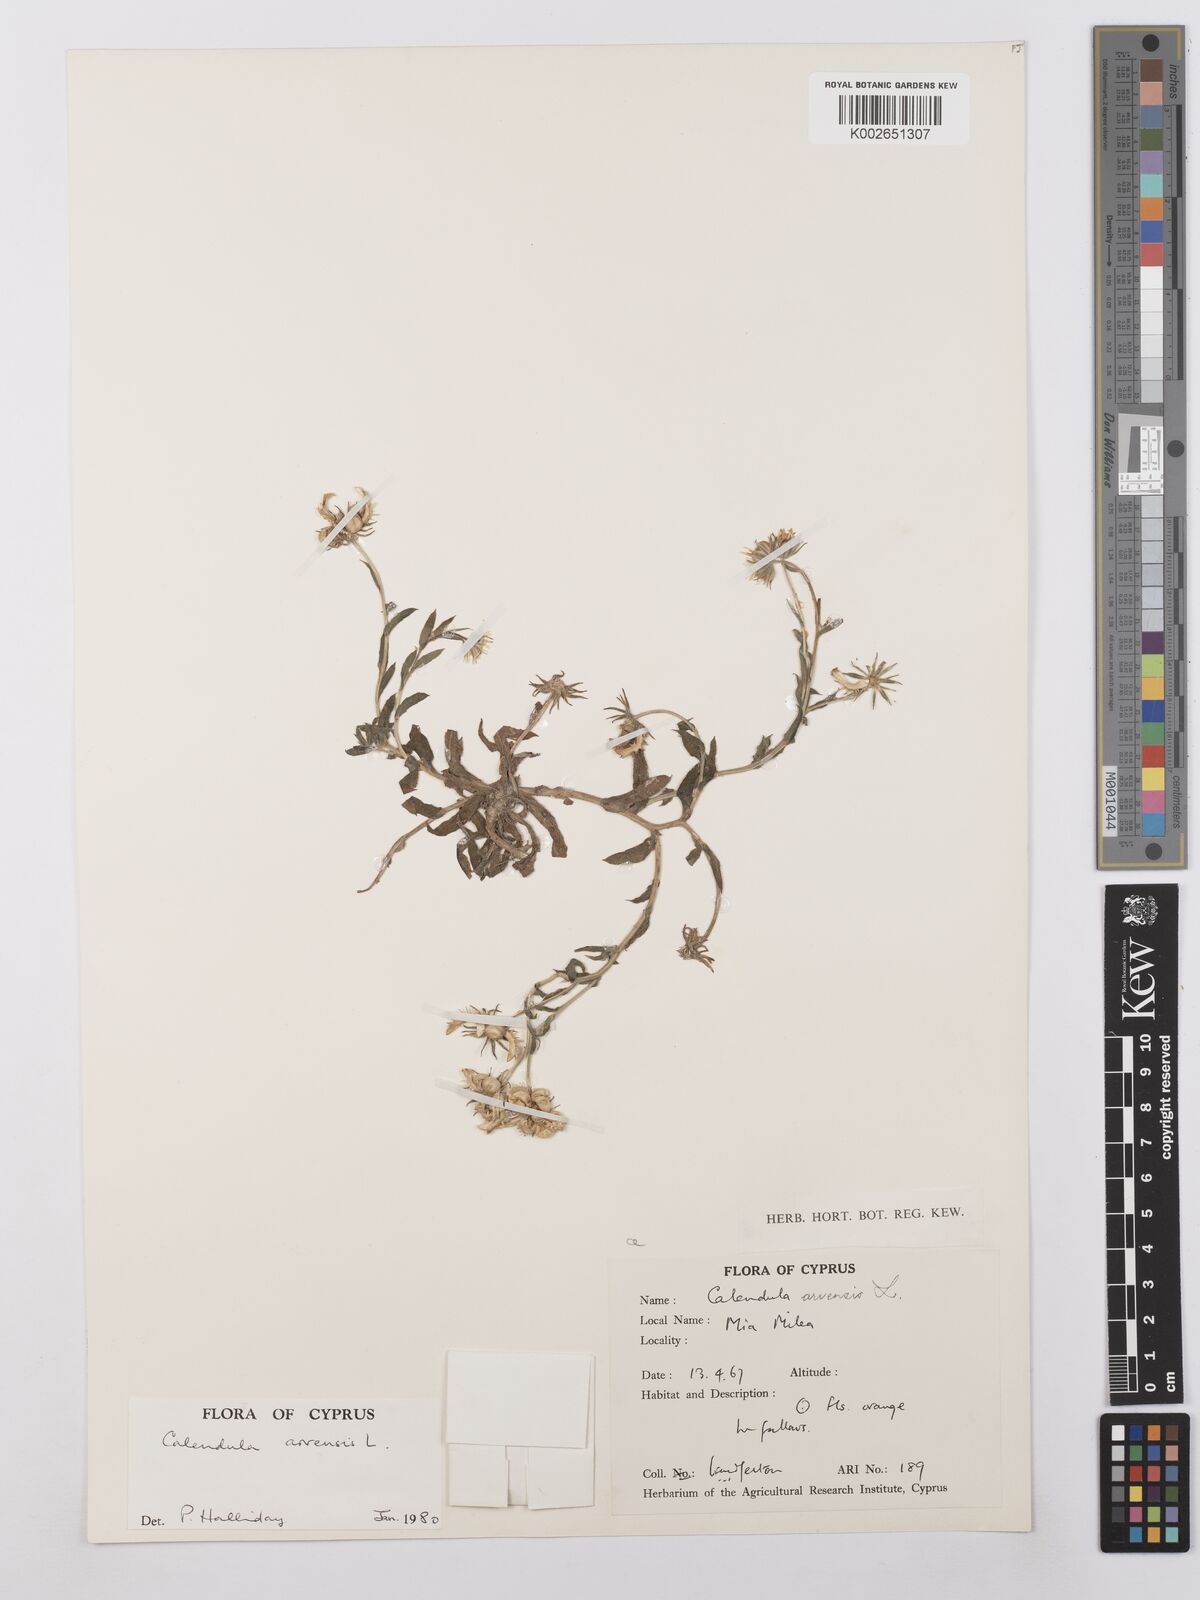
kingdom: Plantae
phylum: Tracheophyta
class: Magnoliopsida
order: Asterales
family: Asteraceae
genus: Calendula
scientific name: Calendula arvensis
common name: Field marigold
